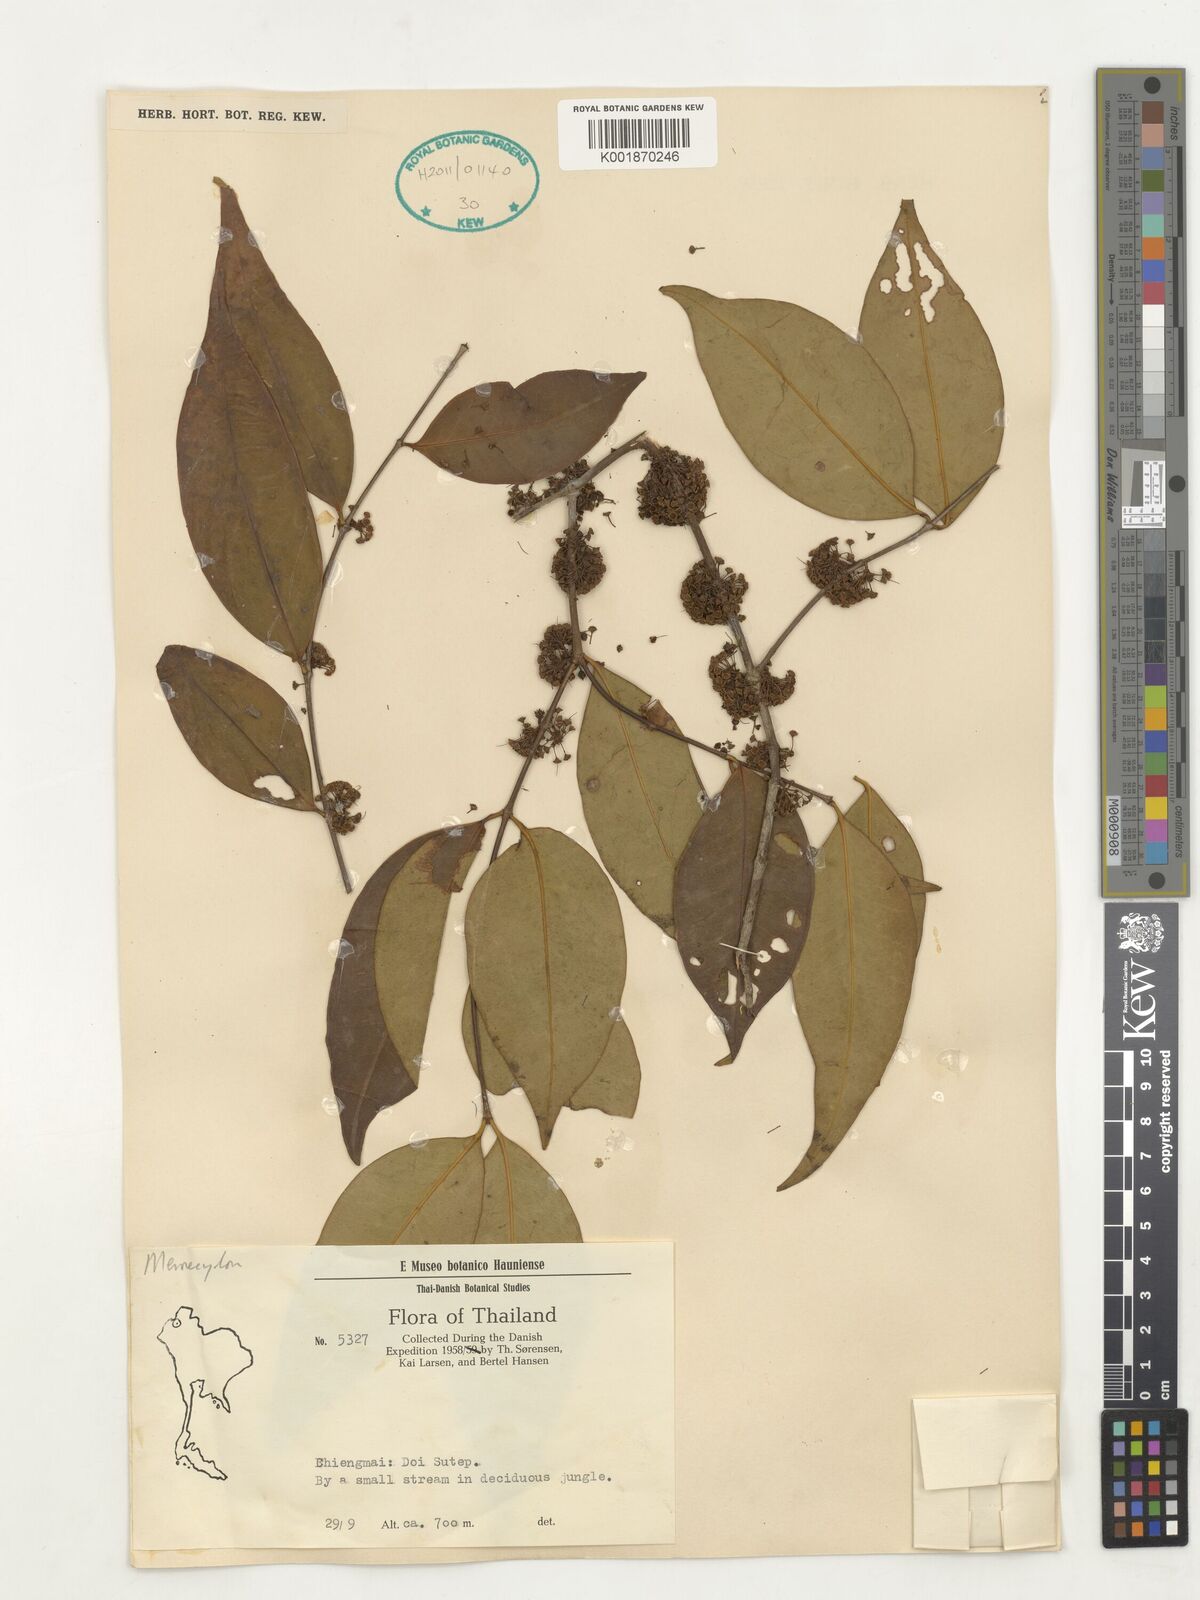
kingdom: Plantae
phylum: Tracheophyta
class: Magnoliopsida
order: Myrtales
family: Melastomataceae
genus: Memecylon
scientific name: Memecylon
